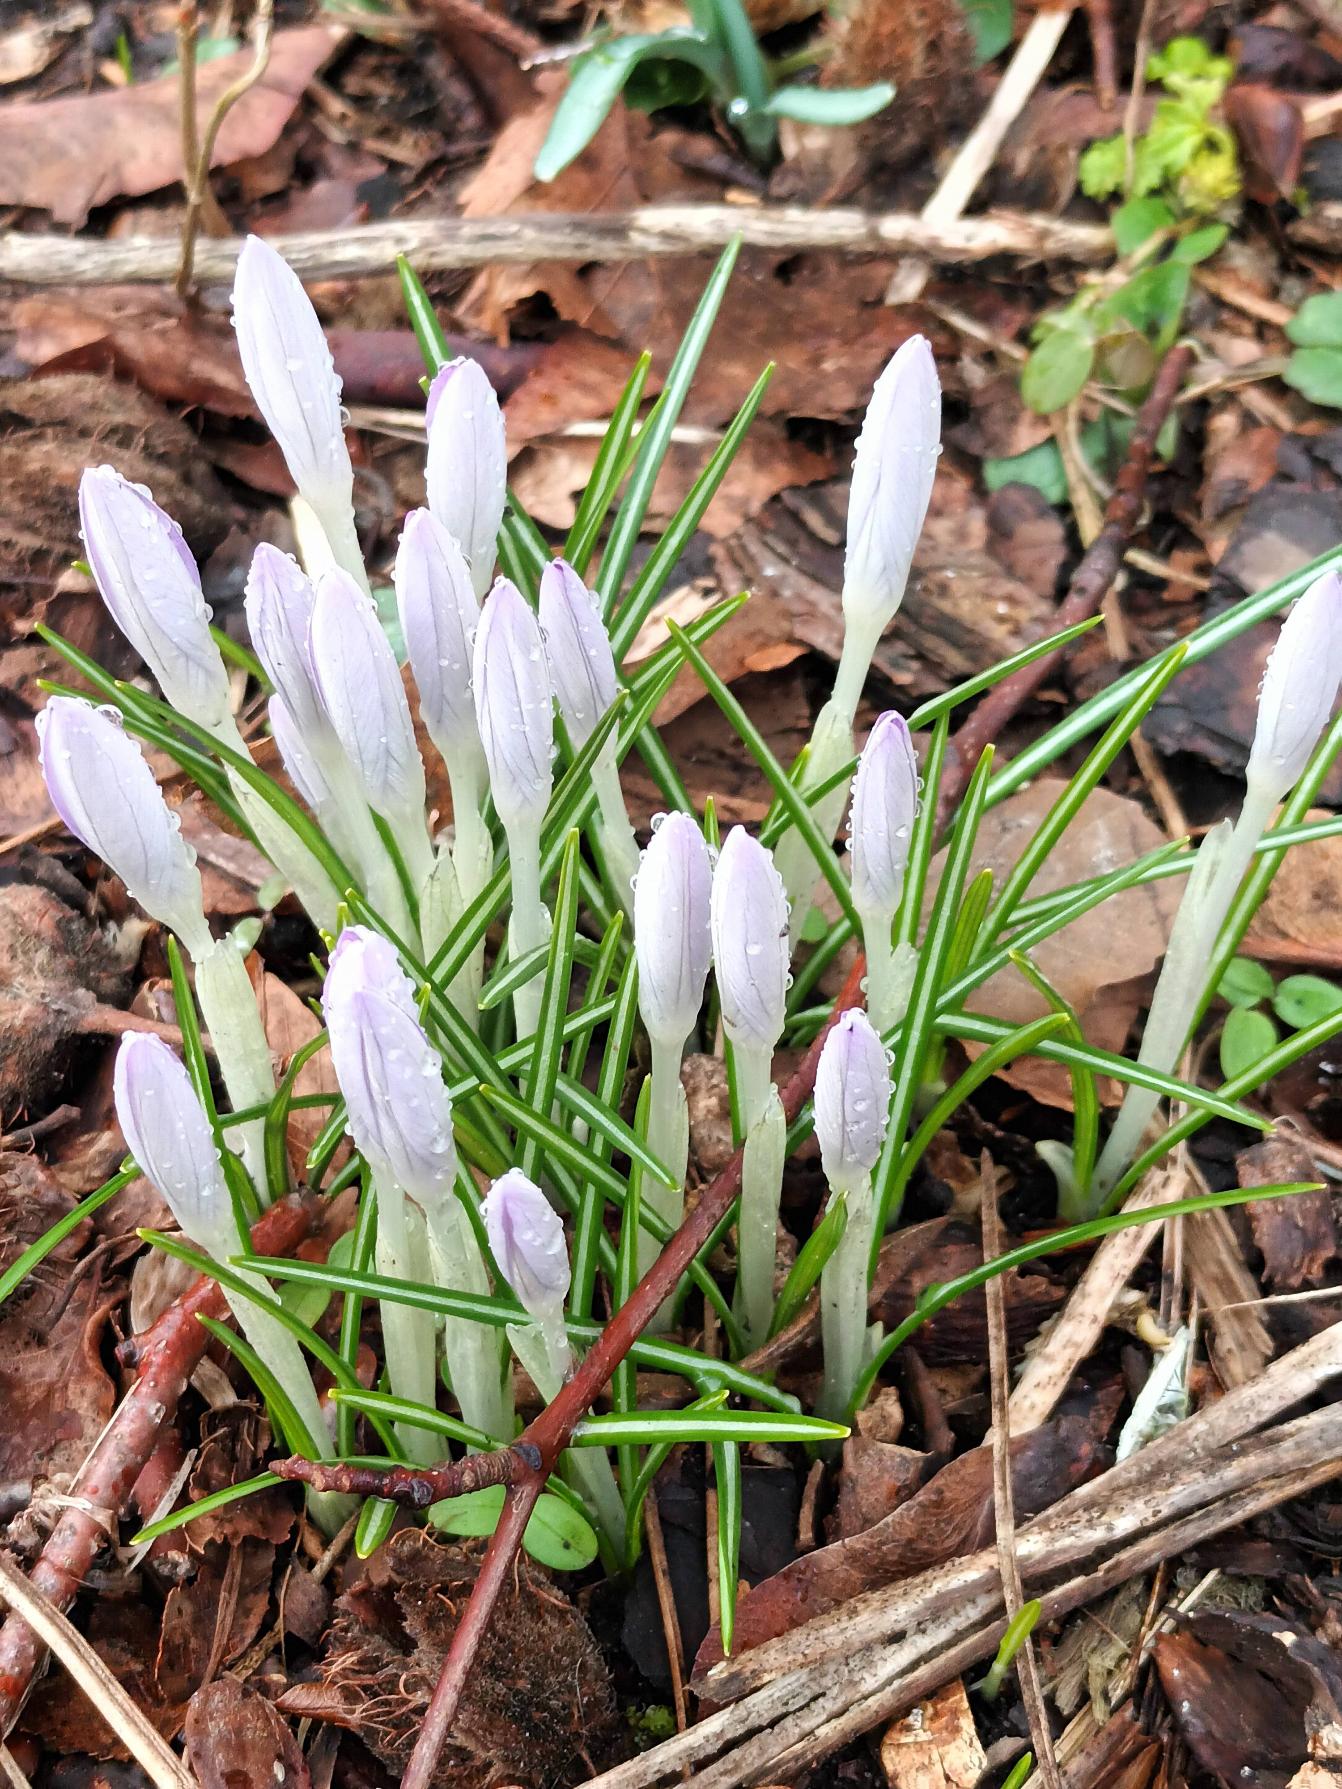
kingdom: Plantae
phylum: Tracheophyta
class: Liliopsida
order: Asparagales
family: Iridaceae
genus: Crocus
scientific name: Crocus tommasinianus
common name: Sne-krokus
